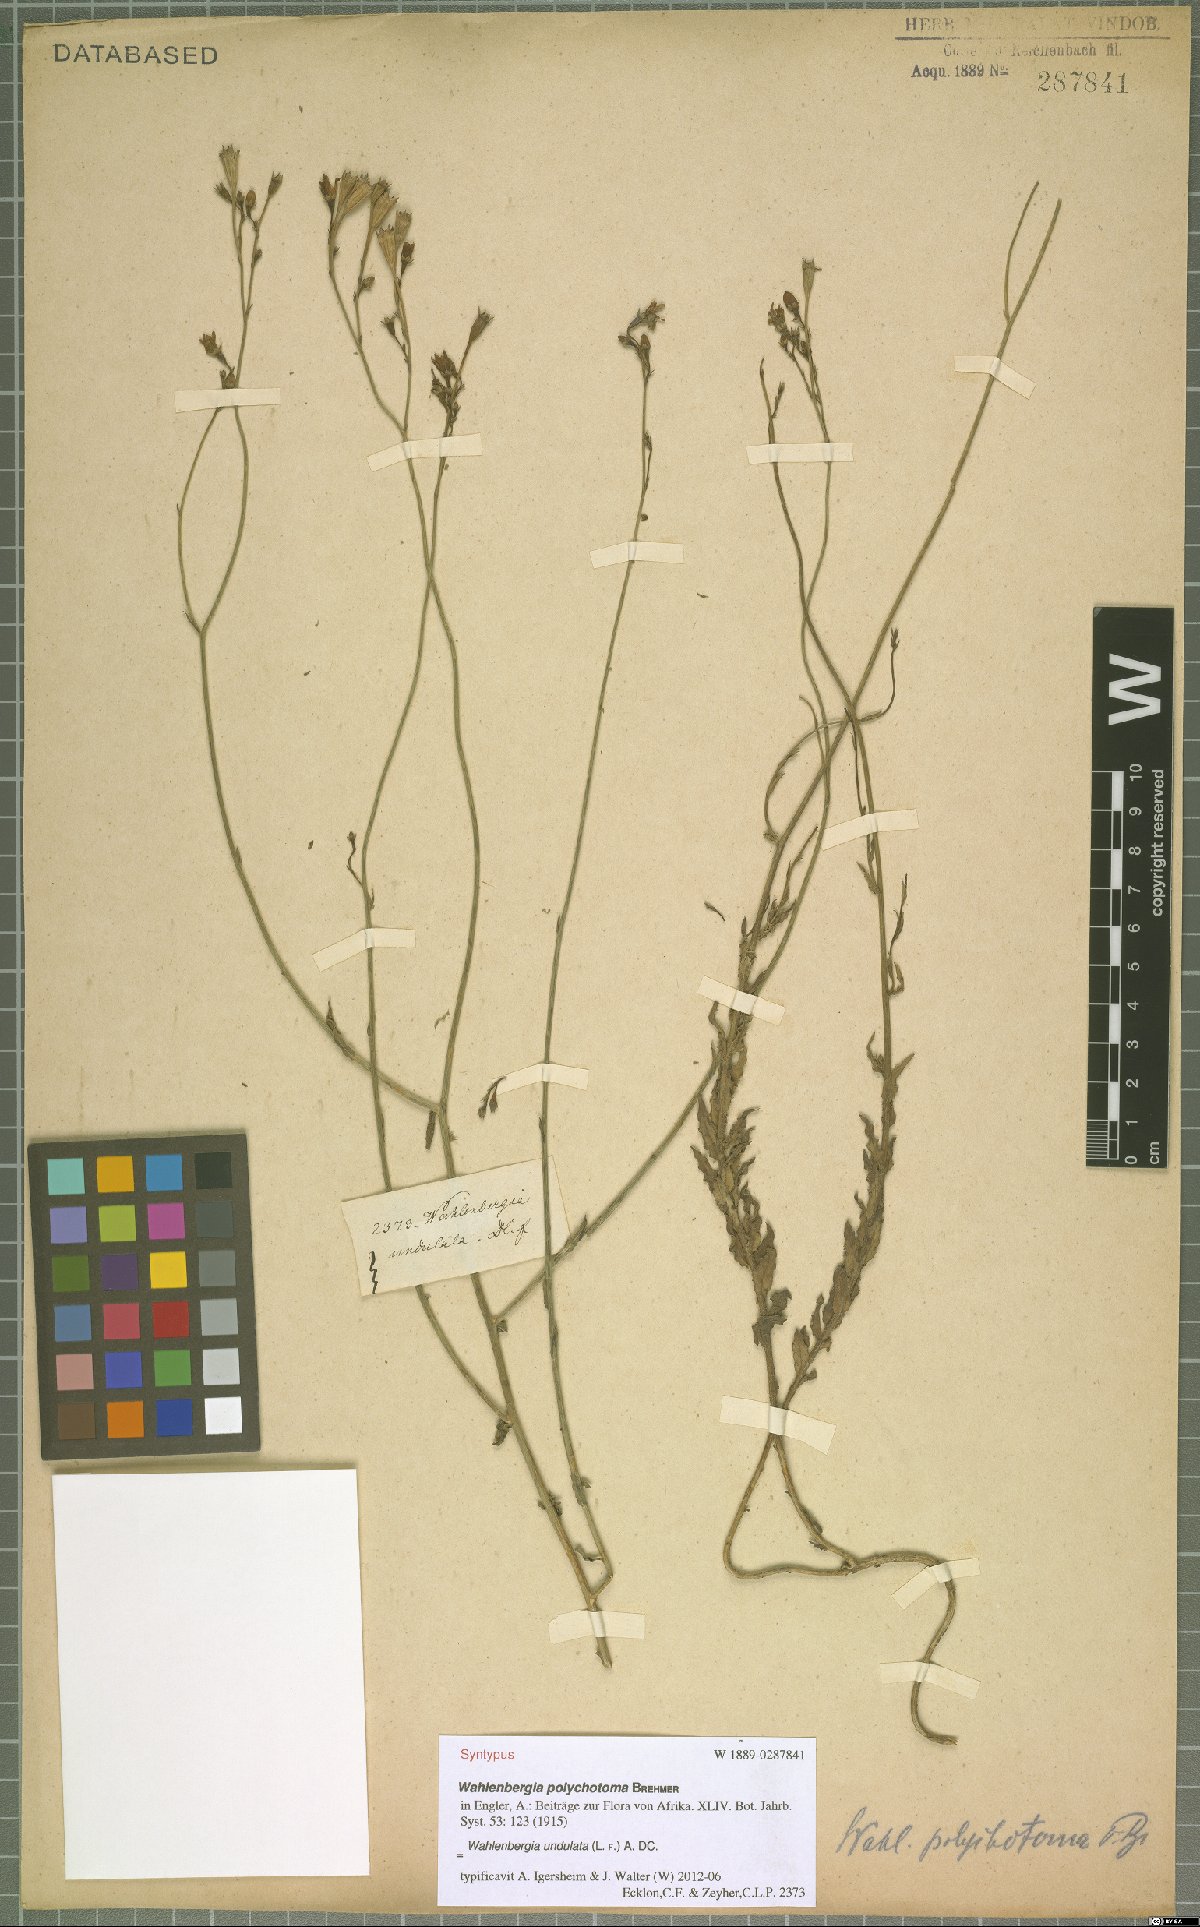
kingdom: Plantae
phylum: Tracheophyta
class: Magnoliopsida
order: Asterales
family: Campanulaceae
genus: Wahlenbergia
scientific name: Wahlenbergia undulata
